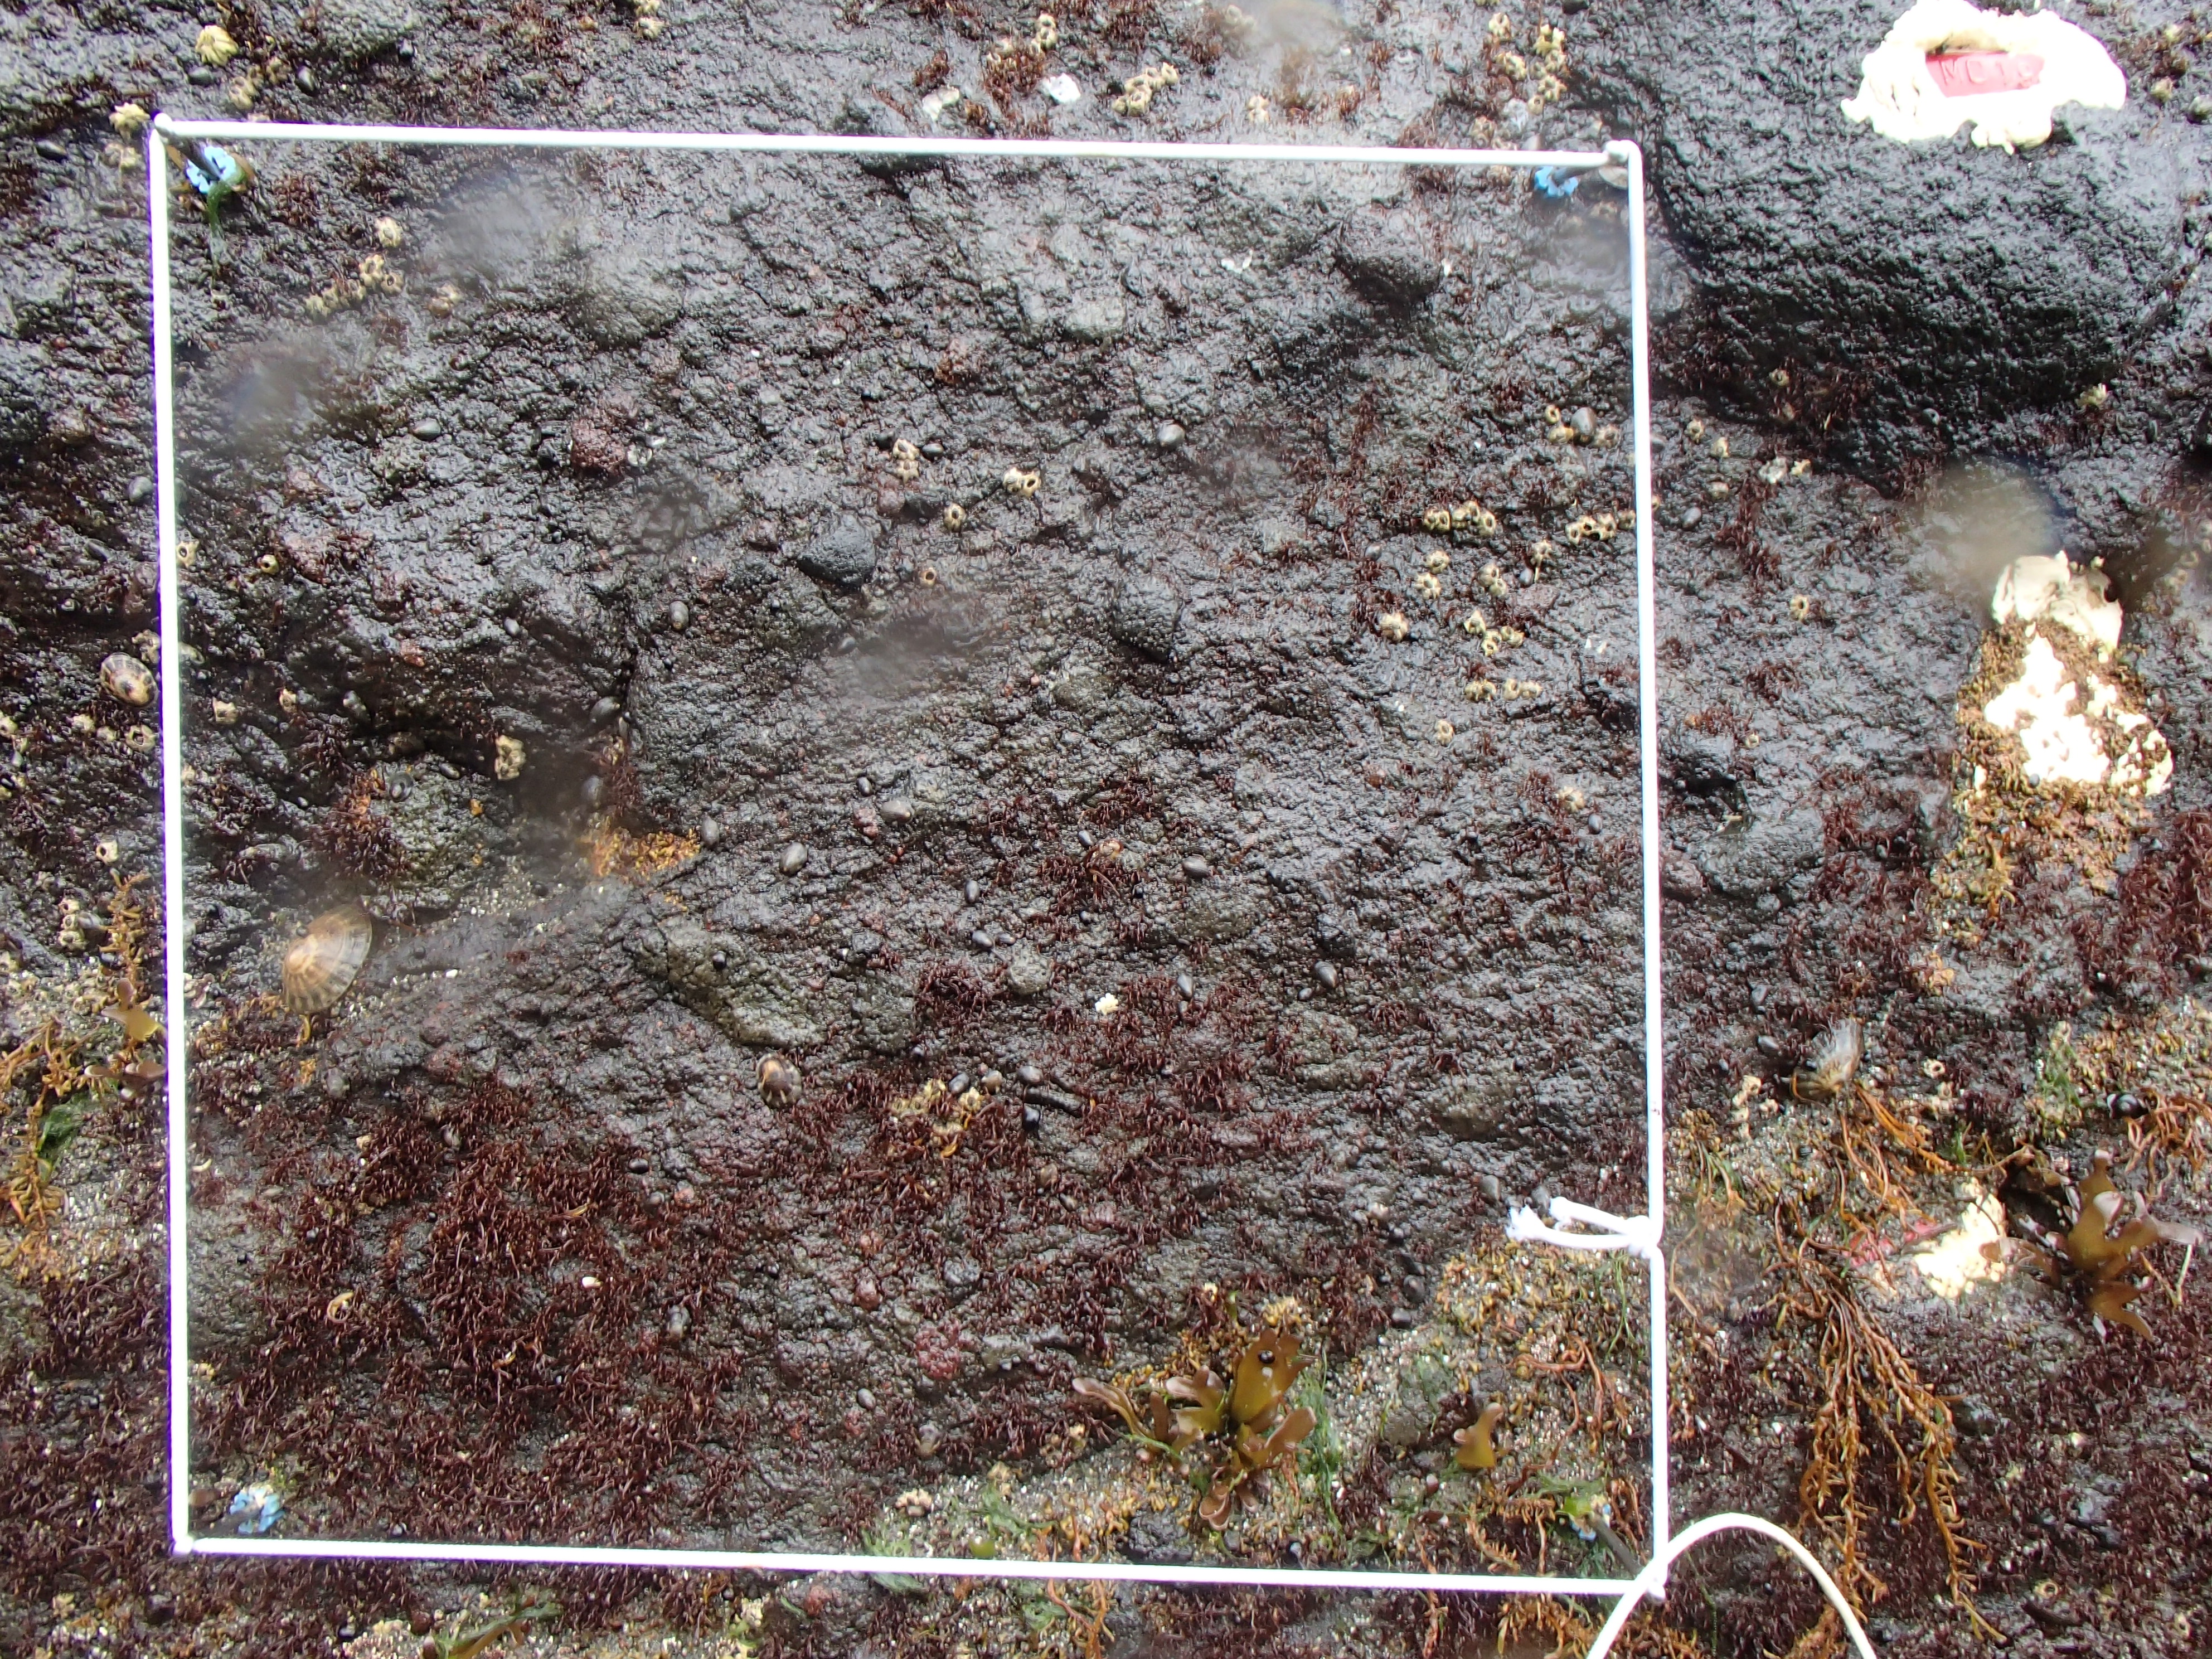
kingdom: Plantae
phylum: Rhodophyta
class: Florideophyceae
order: Corallinales
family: Corallinaceae
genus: Corallina
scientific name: Corallina pilulifera
